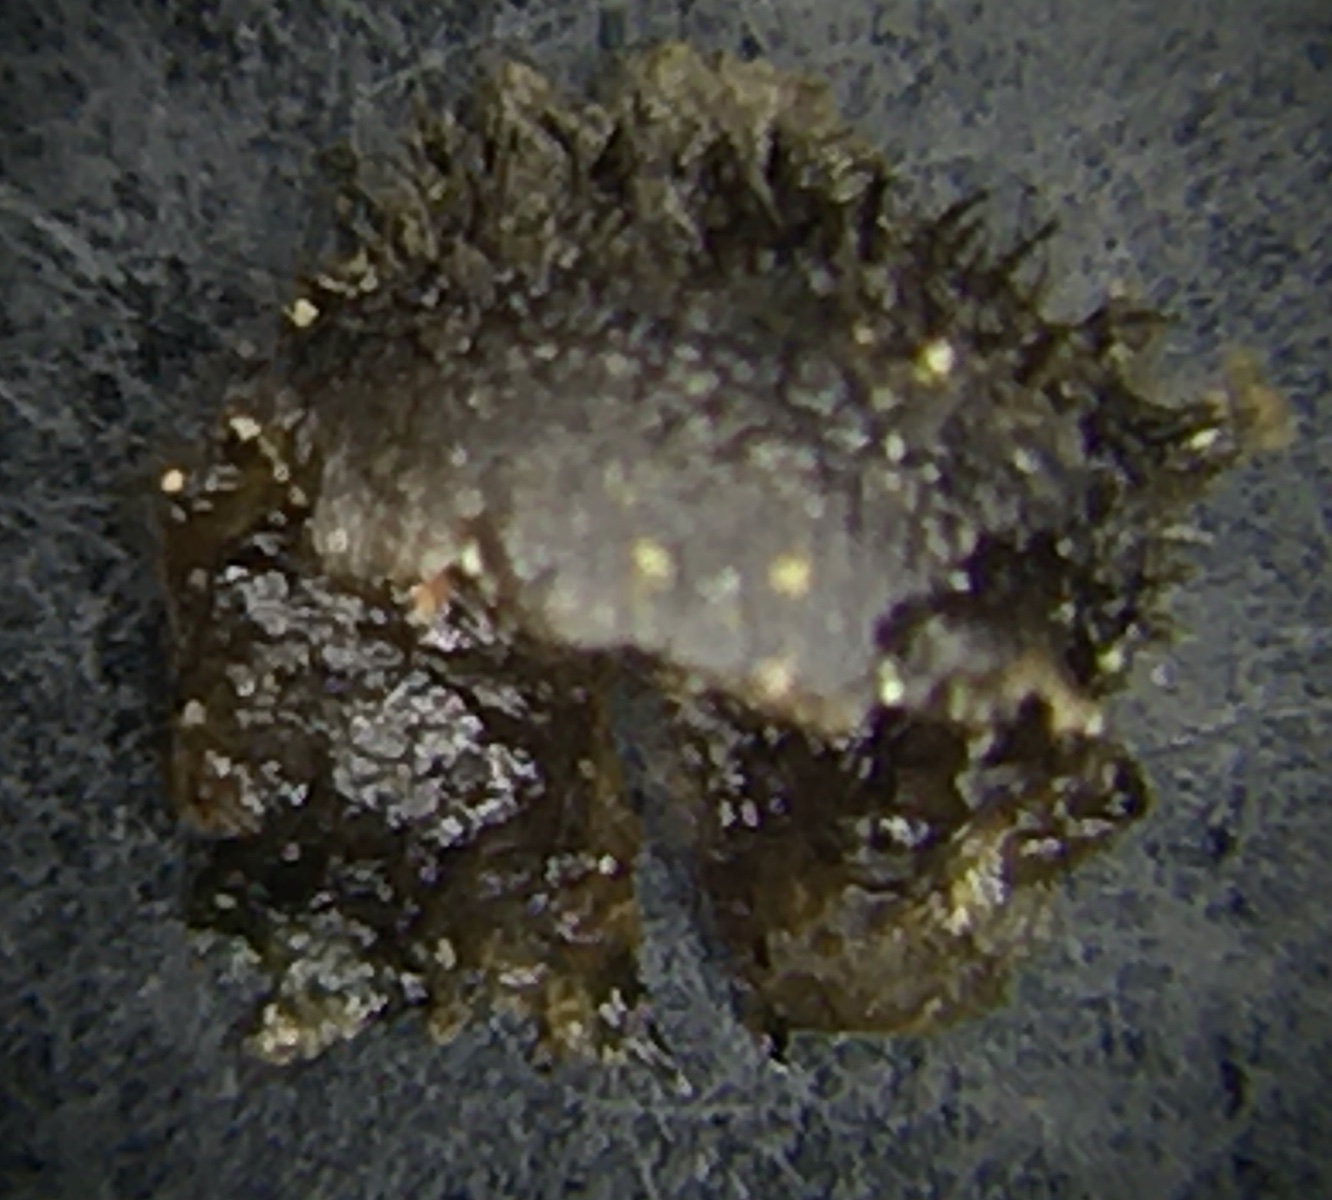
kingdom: Fungi
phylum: Basidiomycota
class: Agaricomycetes
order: Agaricales
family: Pleurotaceae
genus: Resupinatus
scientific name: Resupinatus trichotis
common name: mørkfiltet barkhat
